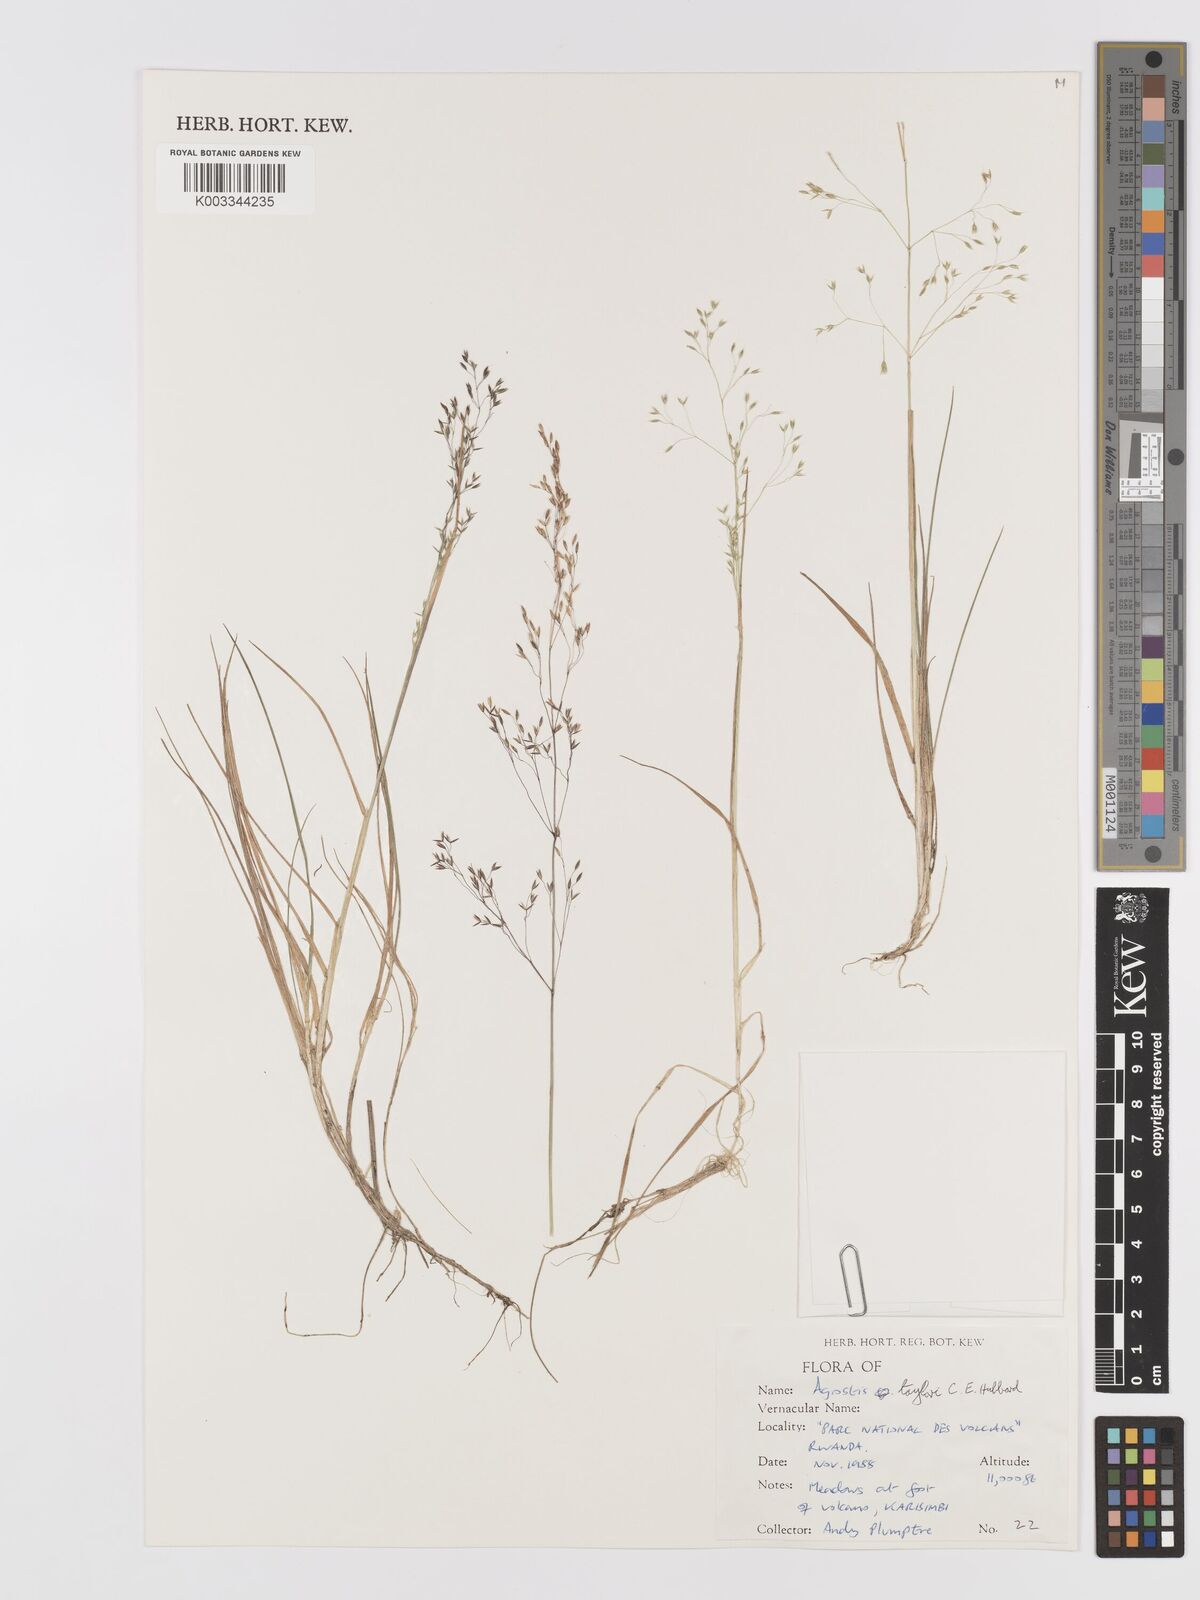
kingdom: Plantae
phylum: Tracheophyta
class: Liliopsida
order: Poales
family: Poaceae
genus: Agrostis
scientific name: Agrostis taylorii
